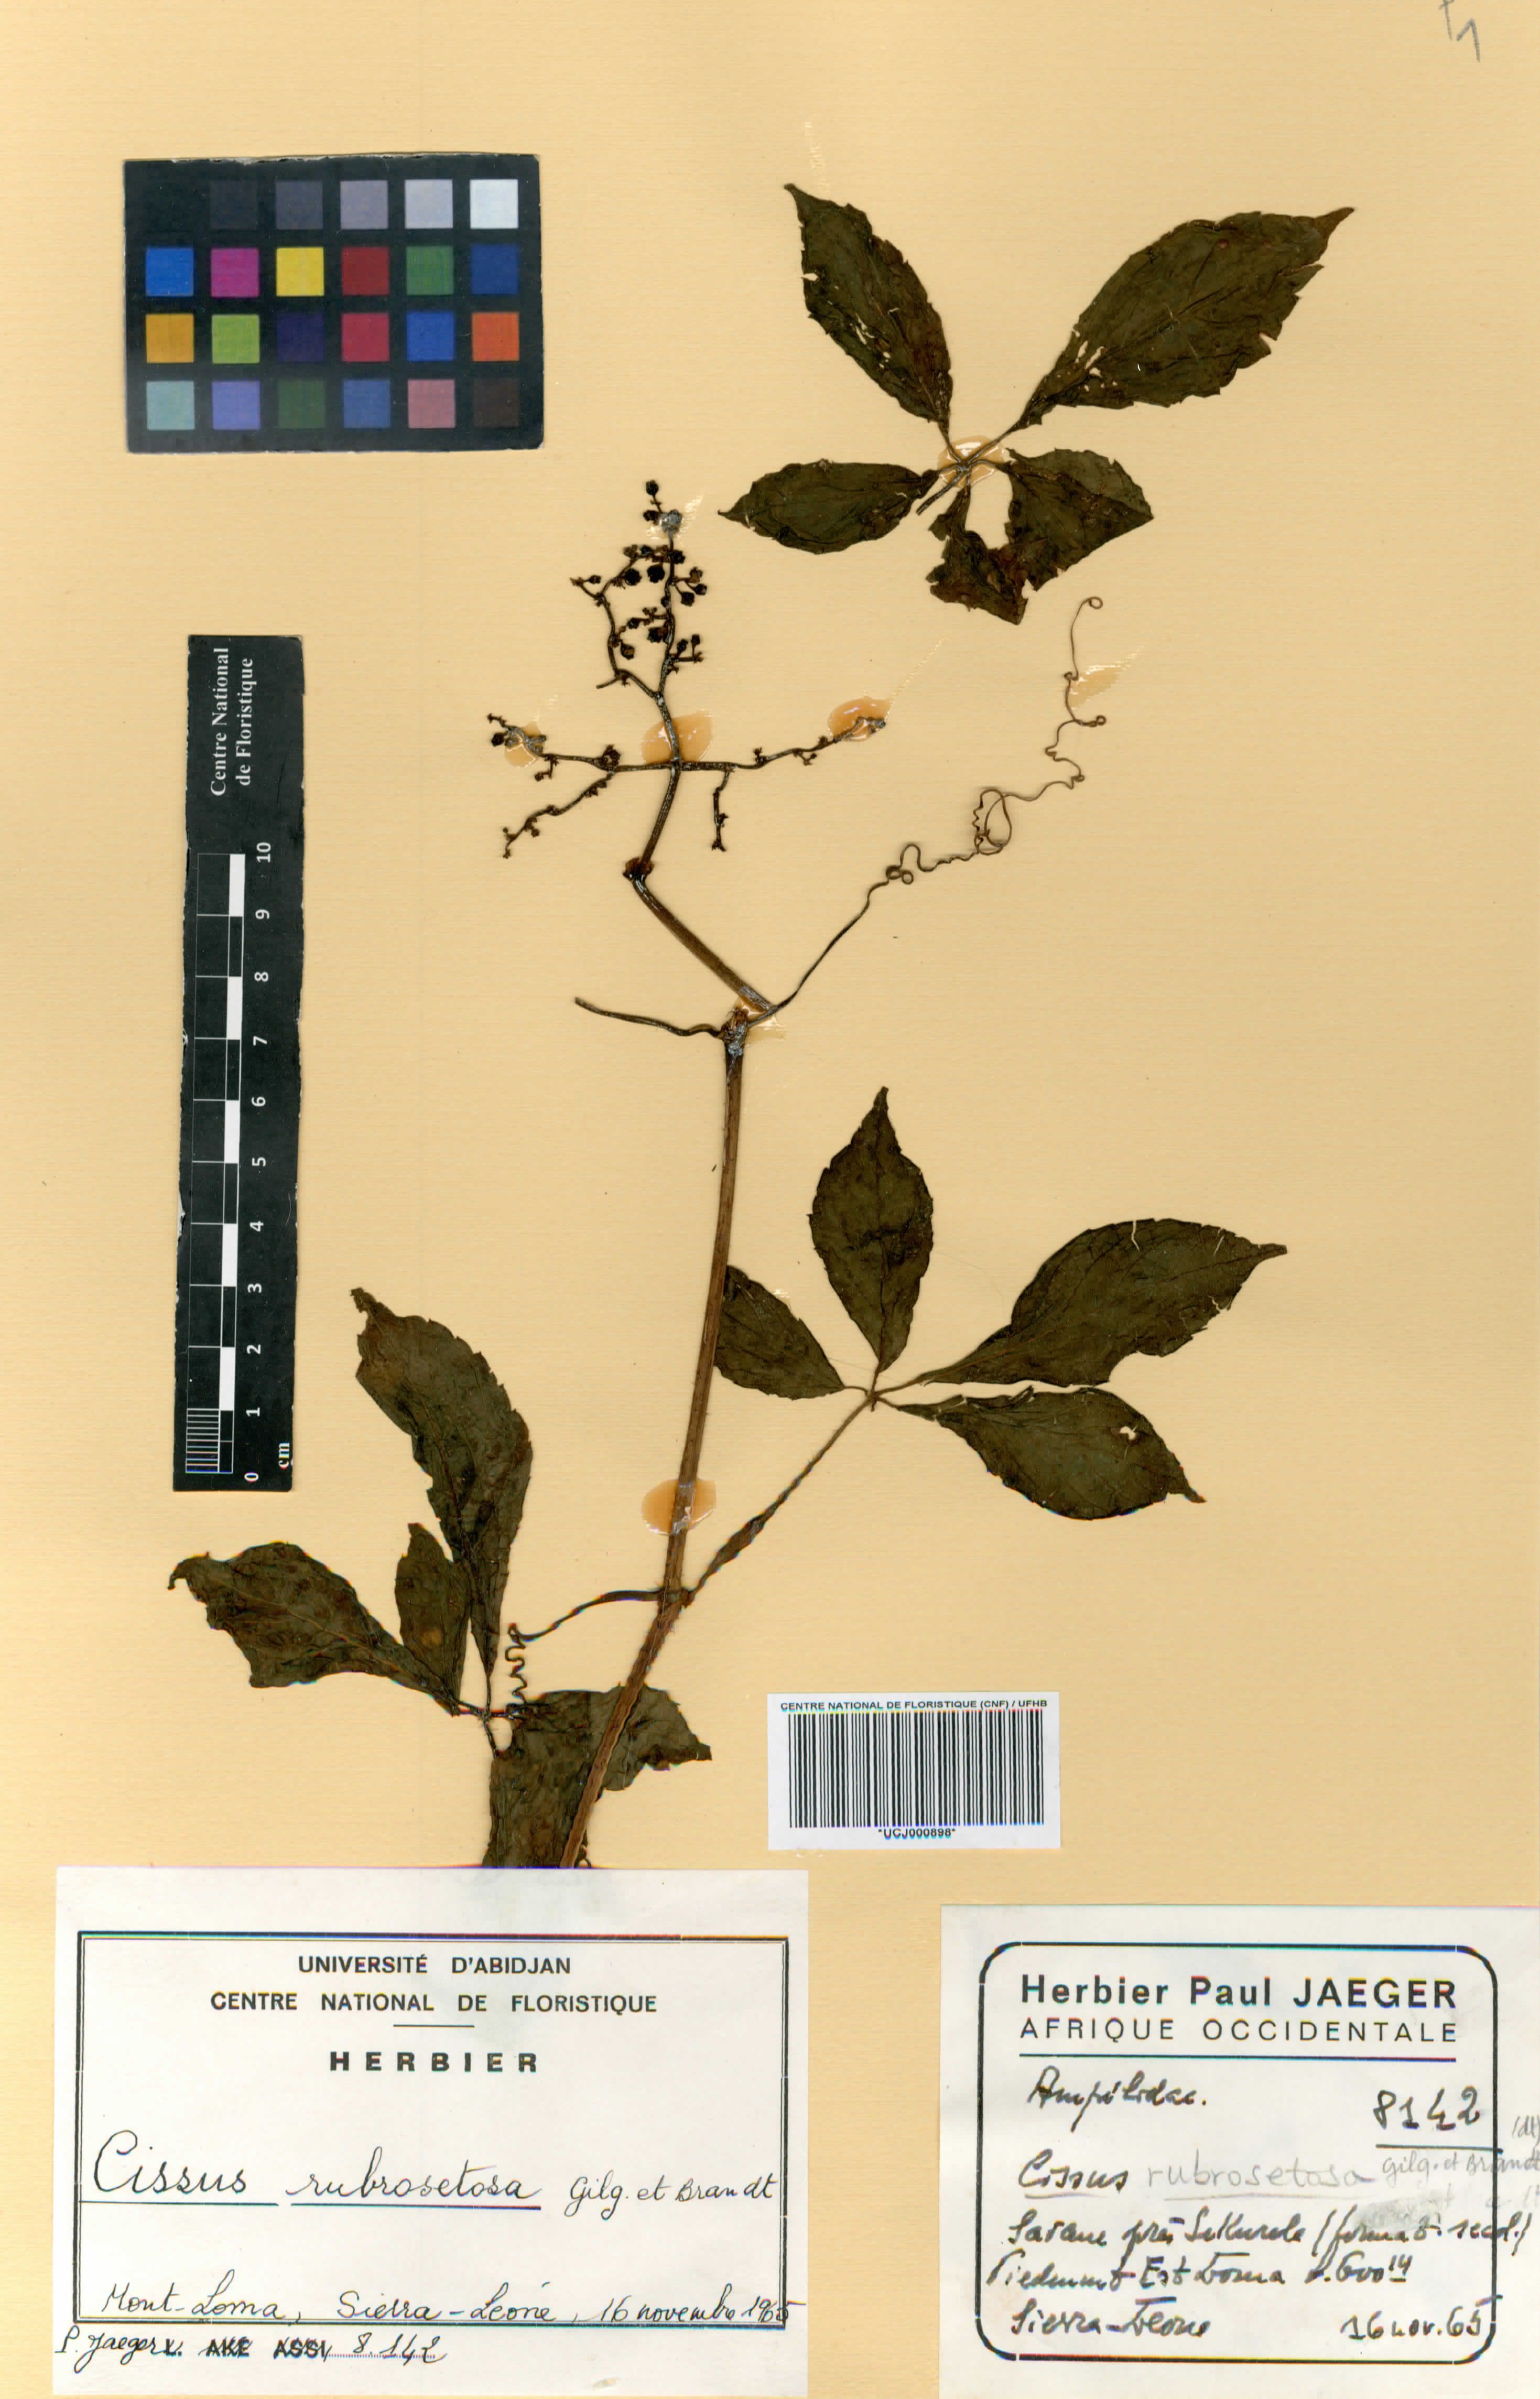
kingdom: Plantae
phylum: Tracheophyta
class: Magnoliopsida
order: Vitales
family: Vitaceae
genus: Cyphostemma
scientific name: Cyphostemma rubrosetosum
